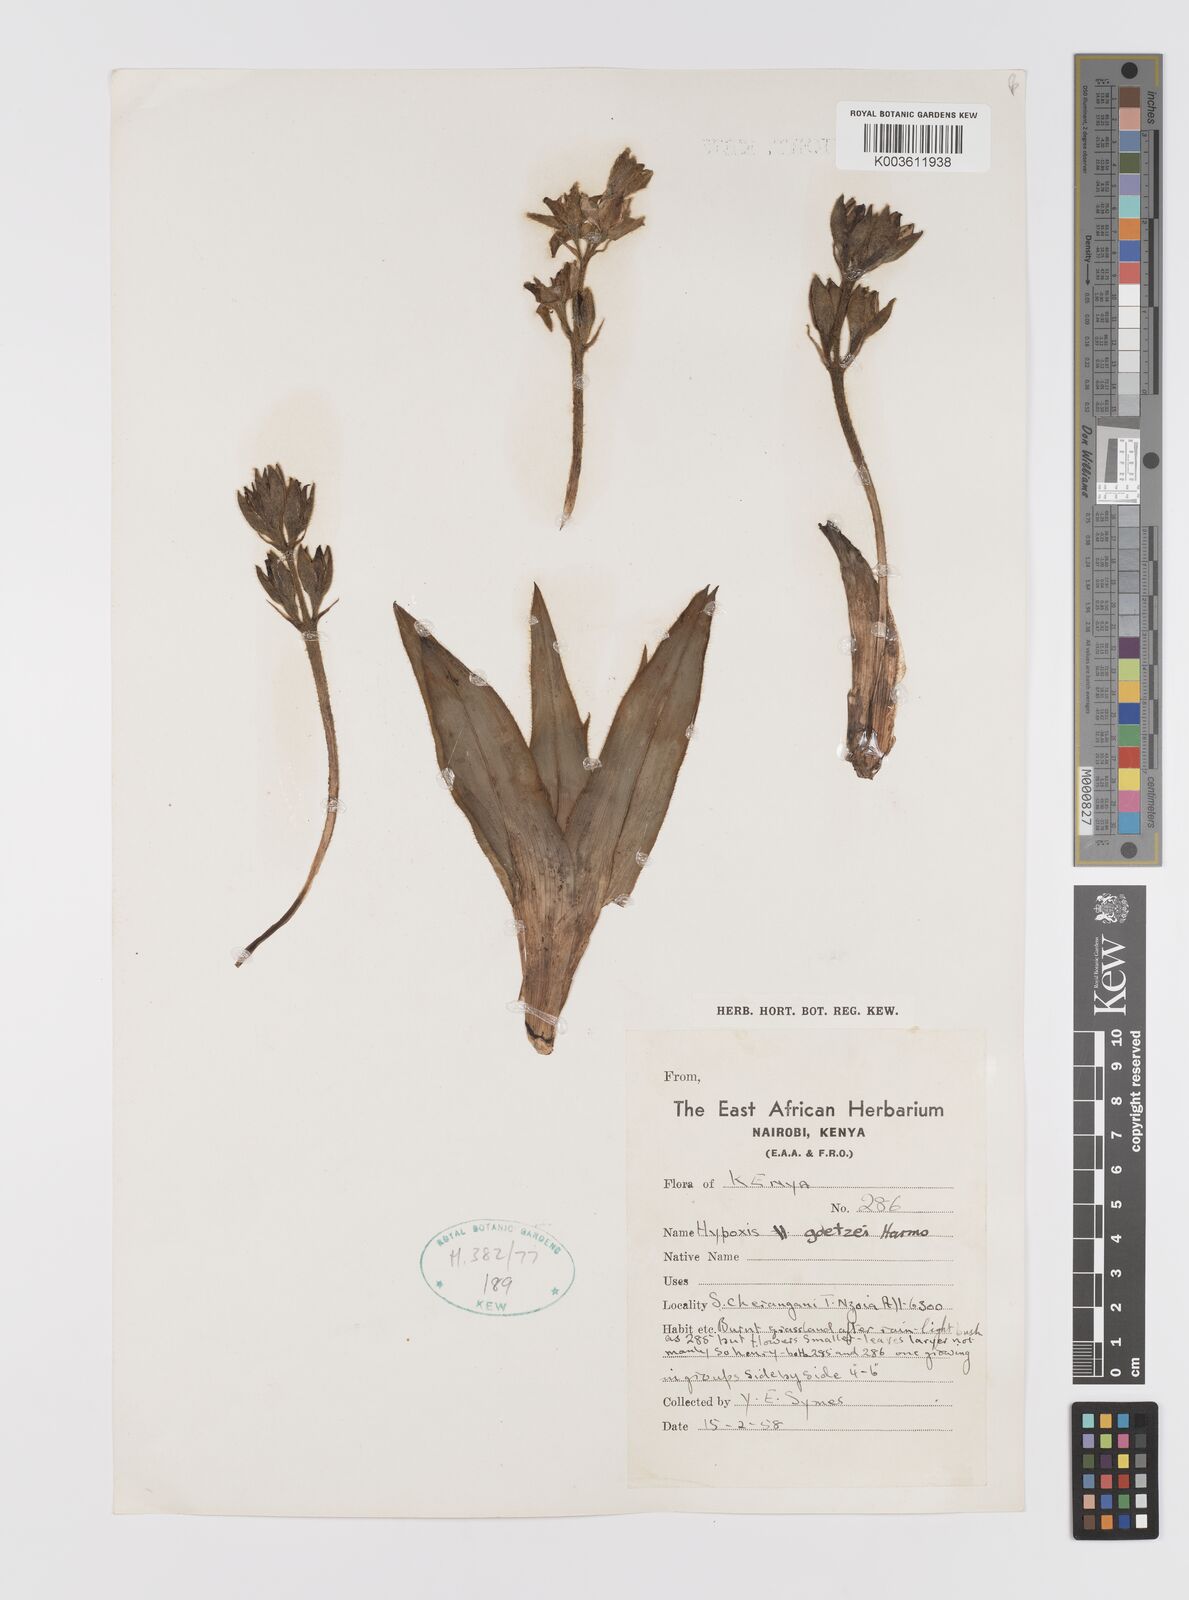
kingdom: Plantae
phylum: Tracheophyta
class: Liliopsida
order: Asparagales
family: Hypoxidaceae
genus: Hypoxis
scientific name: Hypoxis goetzei
